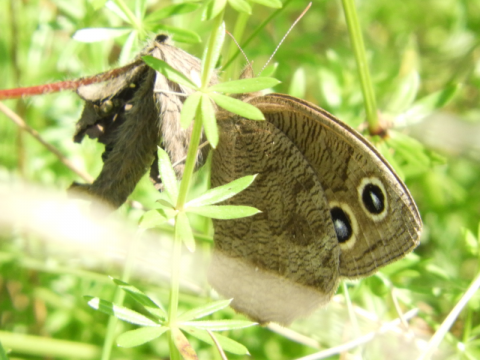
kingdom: Animalia
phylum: Arthropoda
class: Insecta
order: Lepidoptera
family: Nymphalidae
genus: Cercyonis
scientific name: Cercyonis pegala
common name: Common Wood-Nymph
